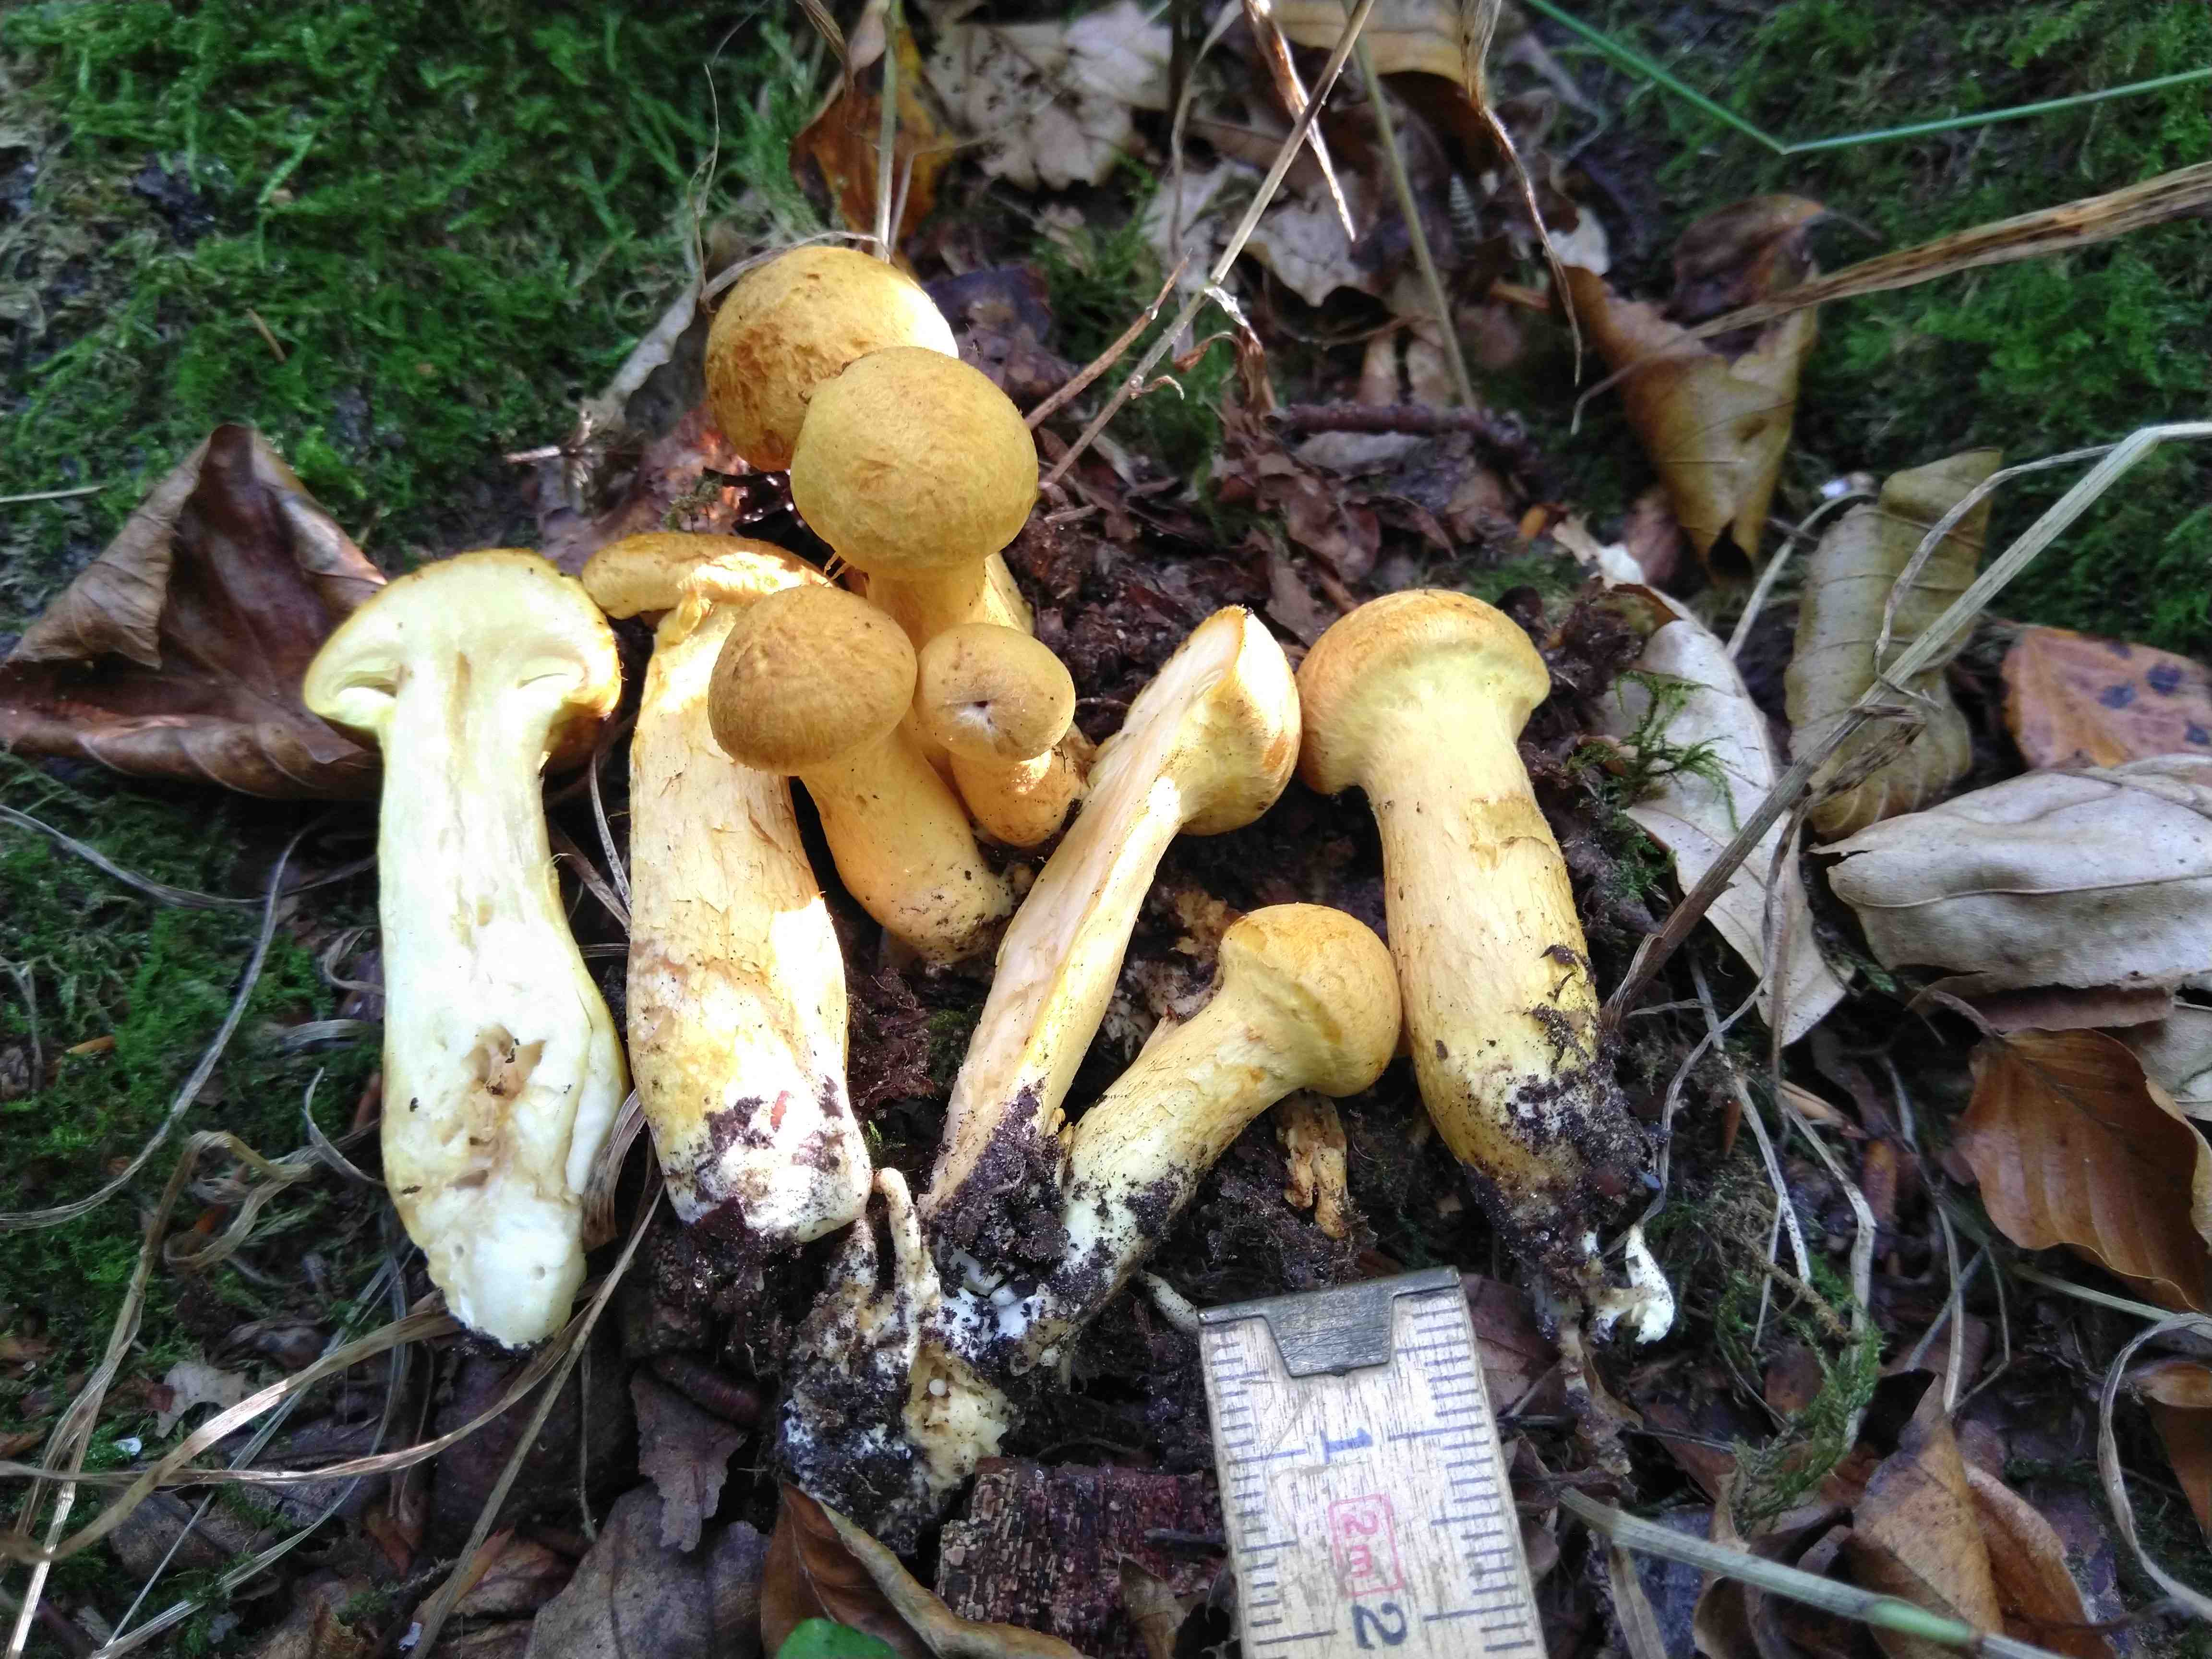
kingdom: Fungi
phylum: Basidiomycota
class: Agaricomycetes
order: Agaricales
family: Hymenogastraceae
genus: Gymnopilus
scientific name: Gymnopilus spectabilis
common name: fibret flammehat
